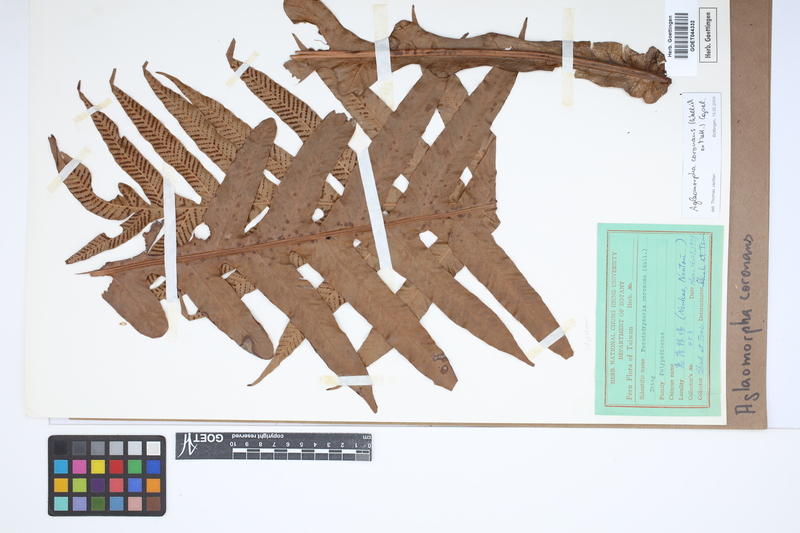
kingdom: Plantae
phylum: Tracheophyta
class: Polypodiopsida
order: Polypodiales
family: Polypodiaceae
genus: Drynaria
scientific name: Drynaria coronans
